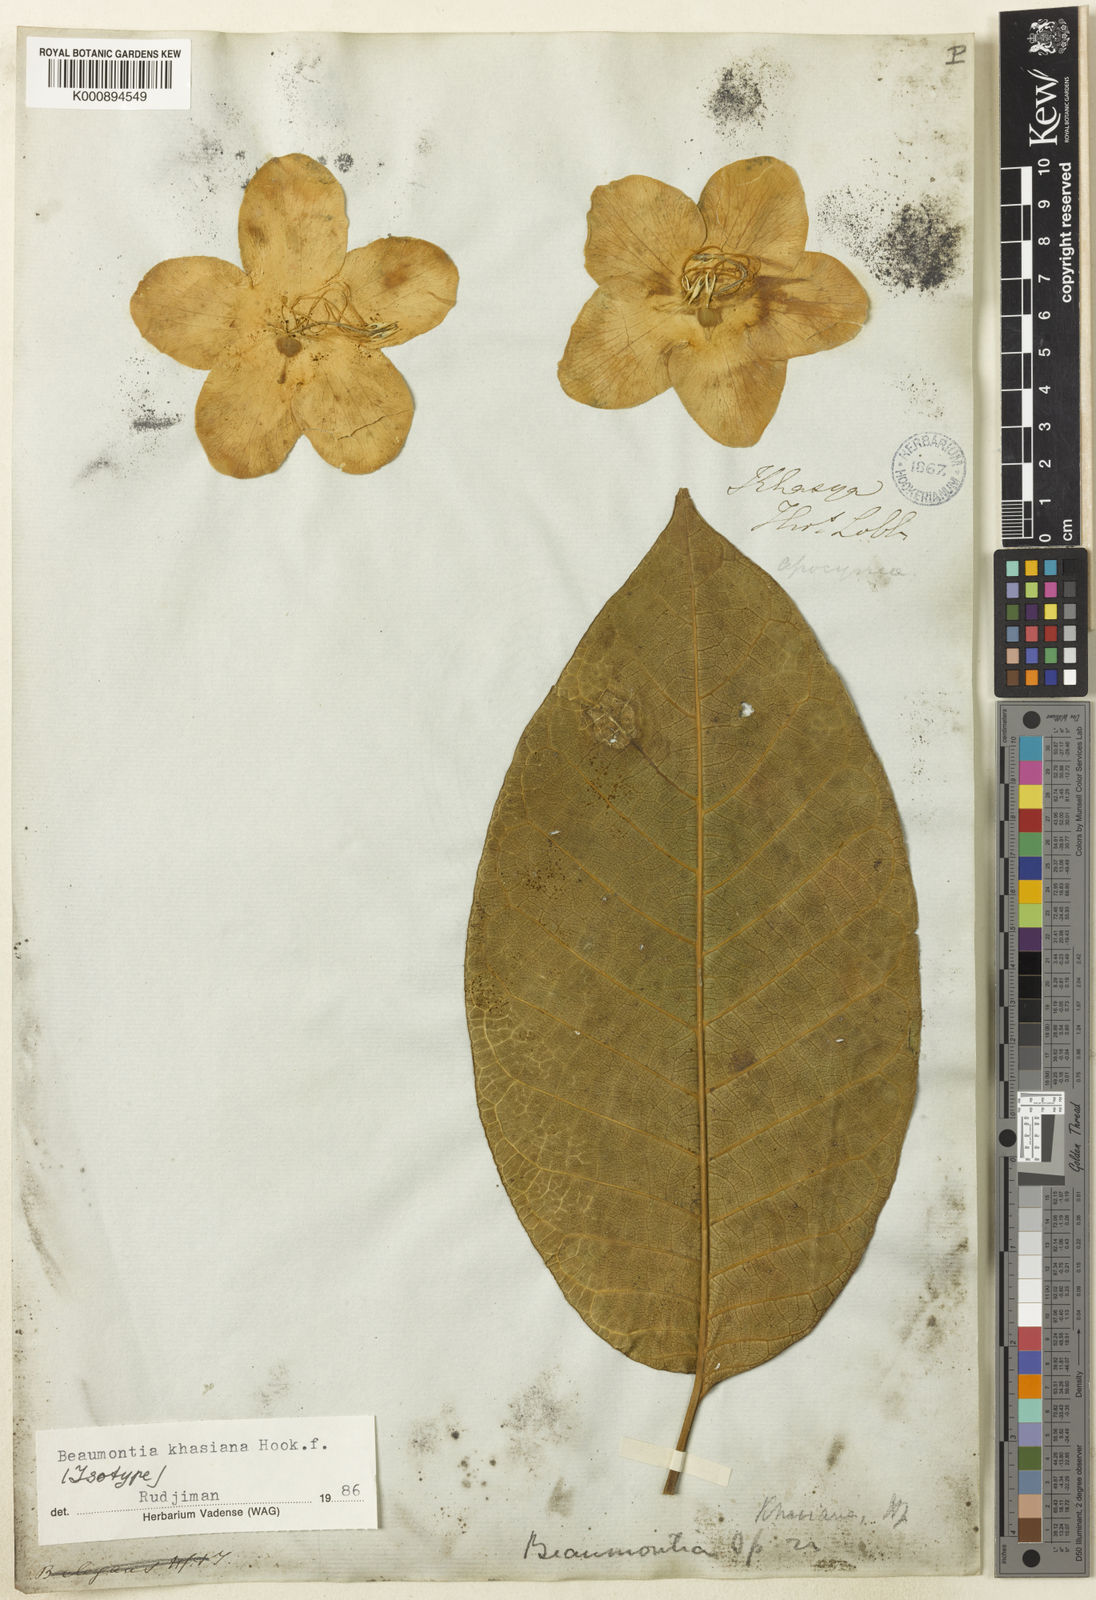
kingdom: Plantae
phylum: Tracheophyta
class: Magnoliopsida
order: Gentianales
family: Apocynaceae
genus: Beaumontia
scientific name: Beaumontia khasiana
